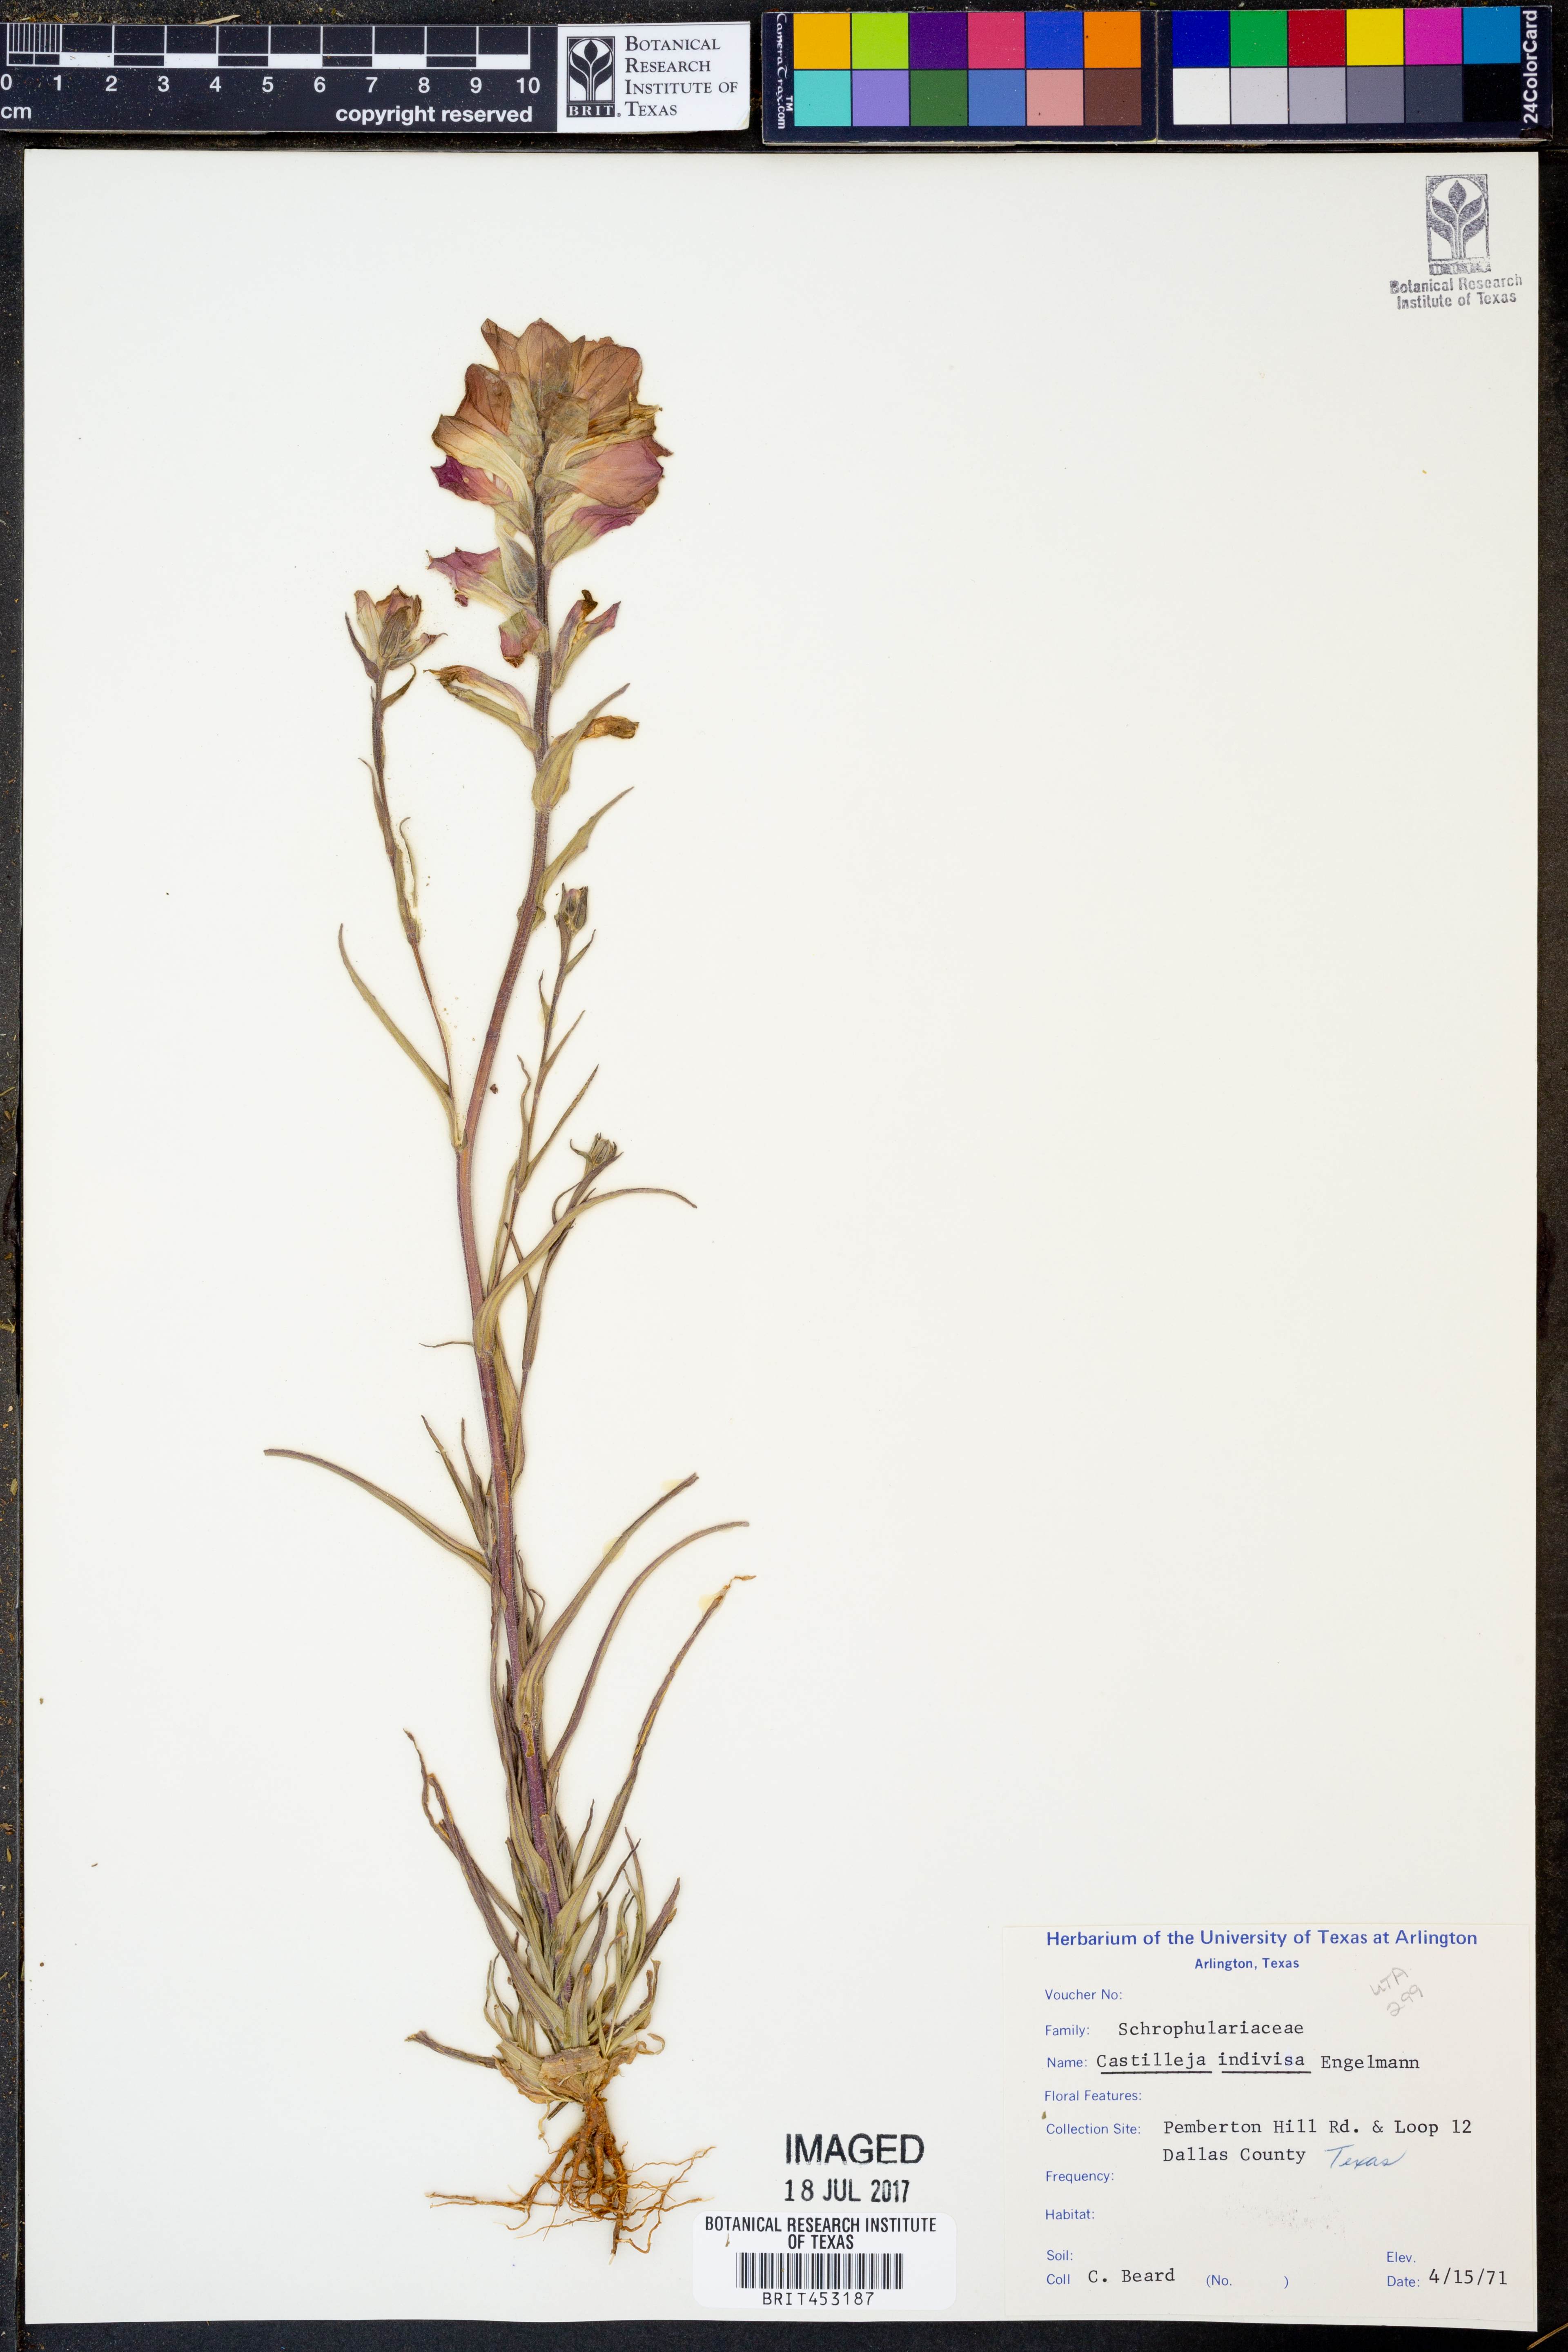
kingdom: Plantae
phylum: Tracheophyta
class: Magnoliopsida
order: Lamiales
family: Orobanchaceae
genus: Castilleja
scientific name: Castilleja indivisa
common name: Texas paintbrush
